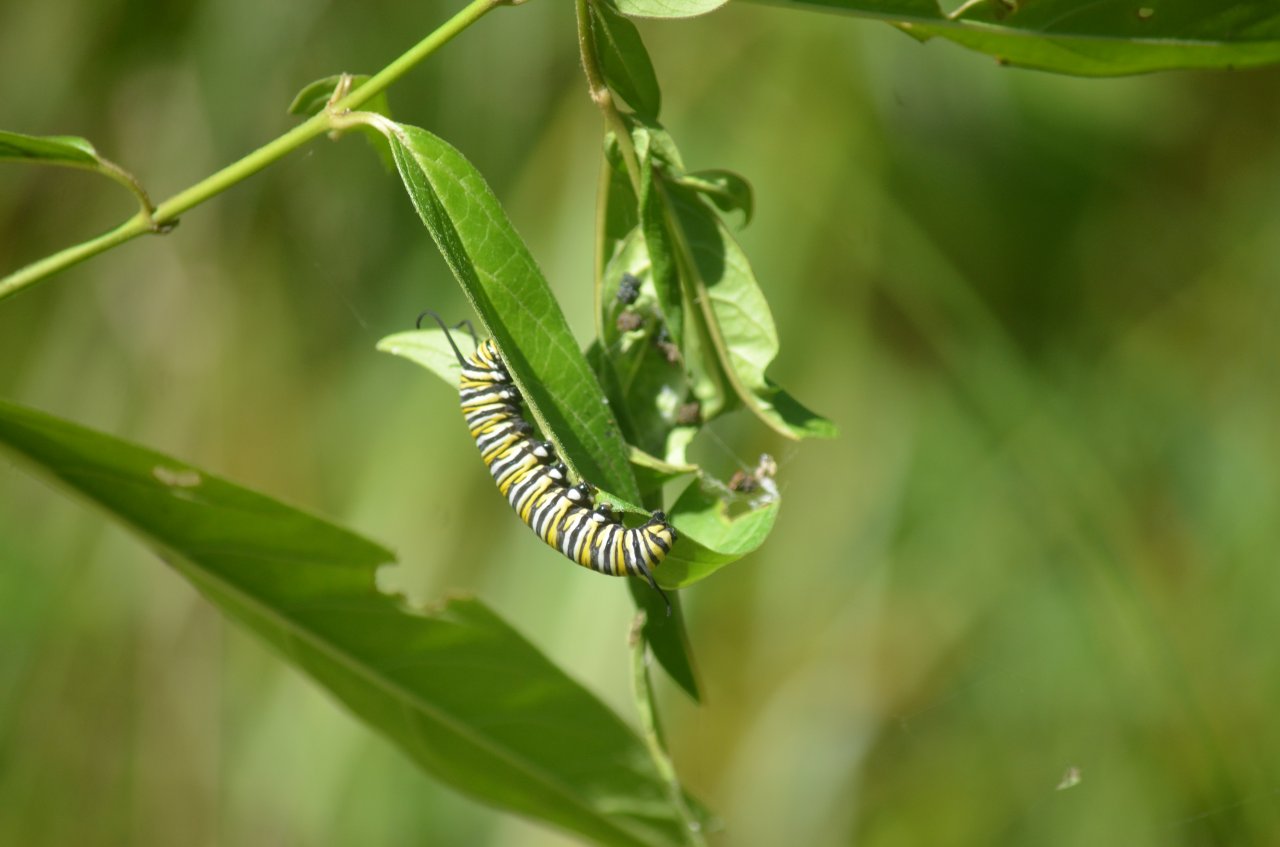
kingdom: Animalia
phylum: Arthropoda
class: Insecta
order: Lepidoptera
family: Nymphalidae
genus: Danaus
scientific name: Danaus plexippus
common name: Monarch
